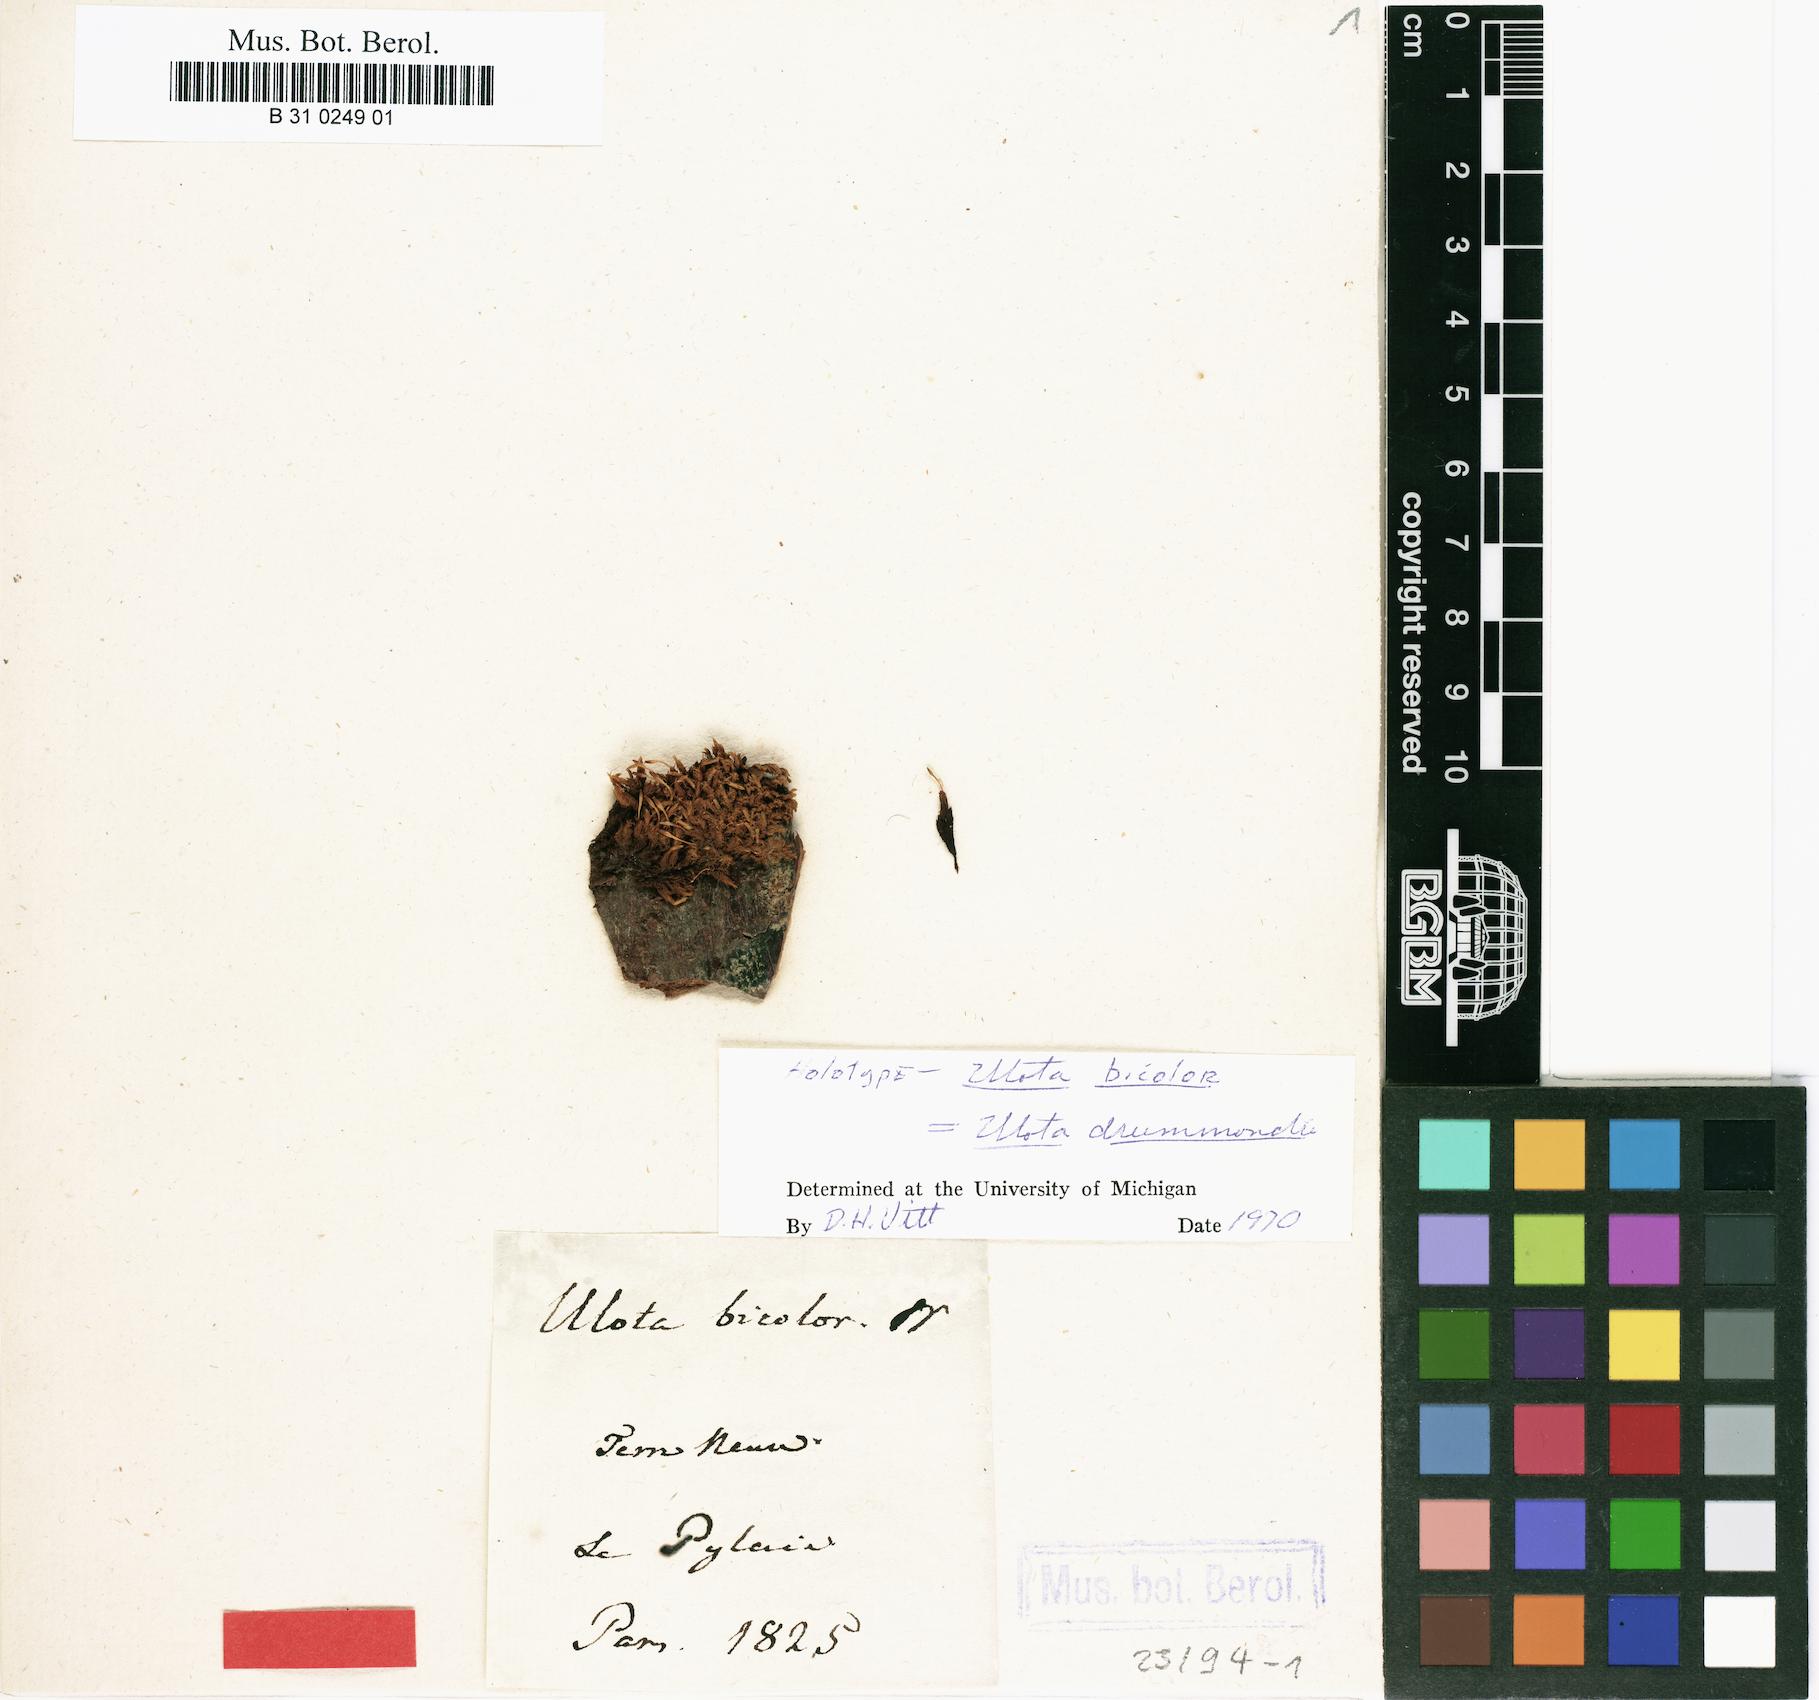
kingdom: Plantae
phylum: Bryophyta
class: Bryopsida
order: Orthotrichales
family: Orthotrichaceae
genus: Ulota
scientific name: Ulota drummondii
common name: Drummond's pincushion moss
